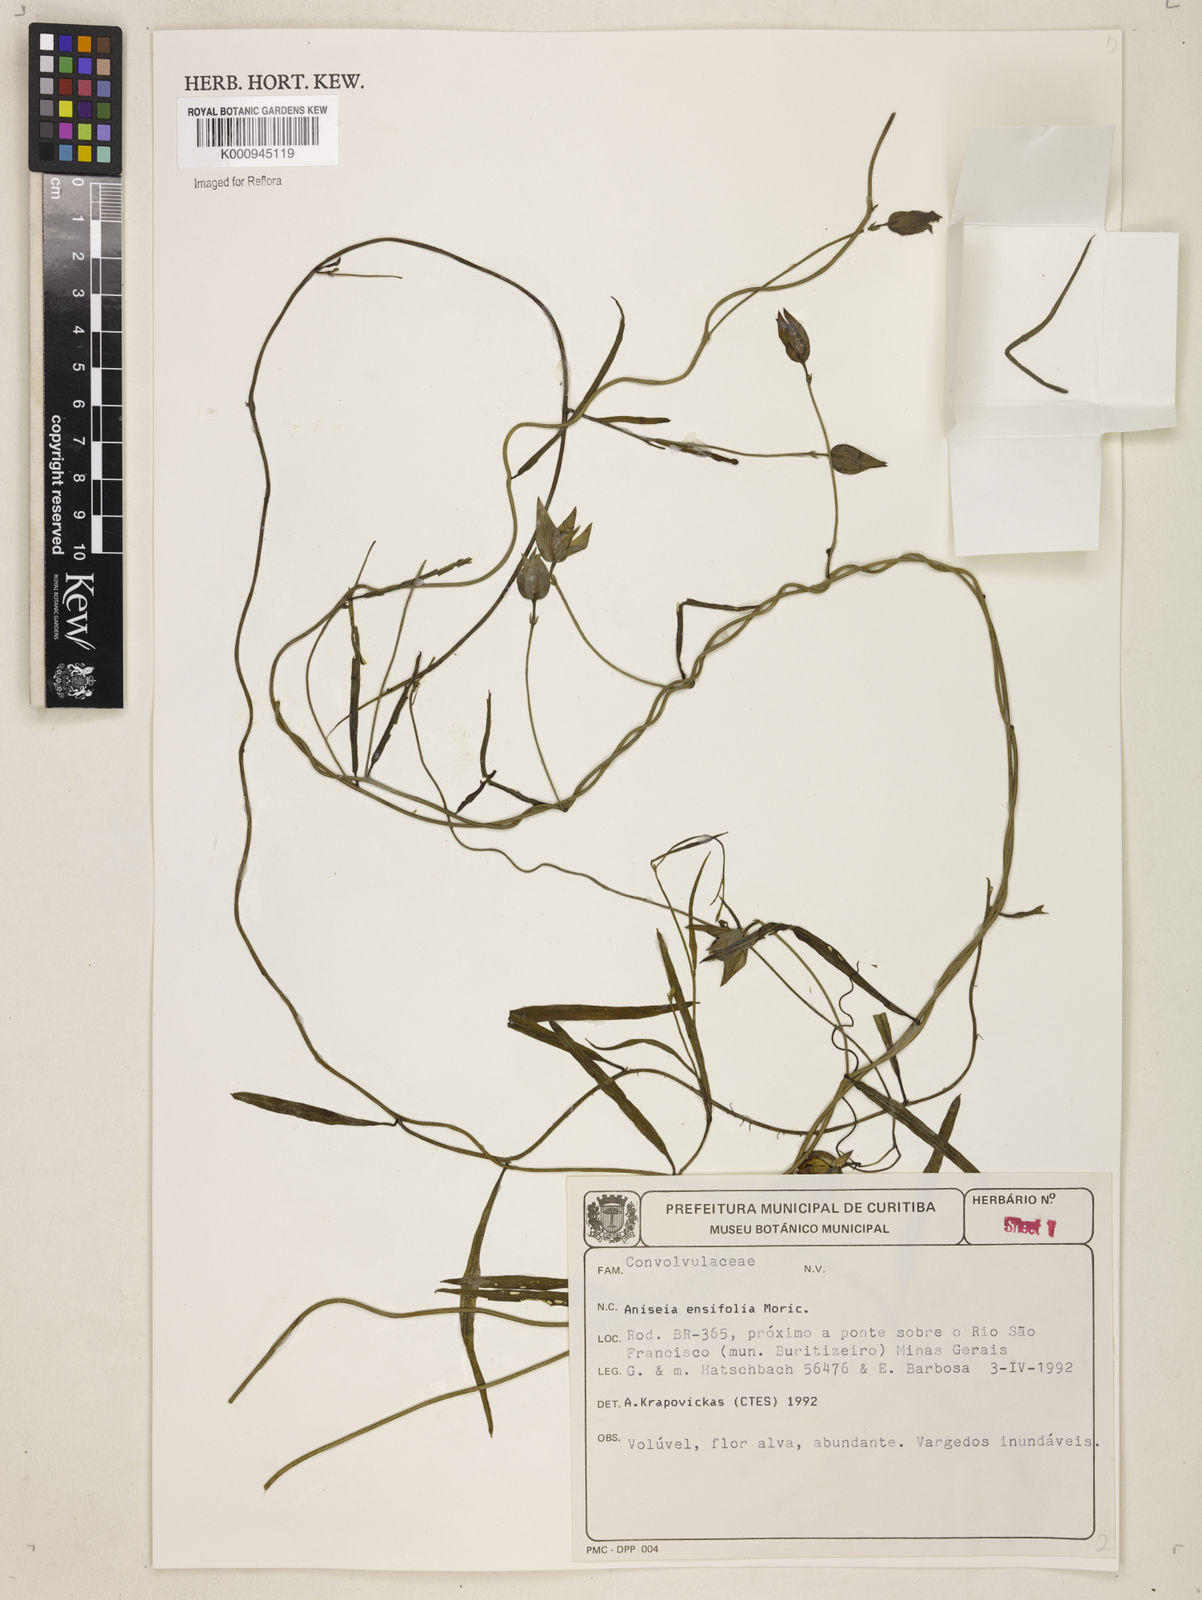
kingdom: Plantae
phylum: Tracheophyta
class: Magnoliopsida
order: Solanales
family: Convolvulaceae
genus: Aniseia
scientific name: Aniseia
